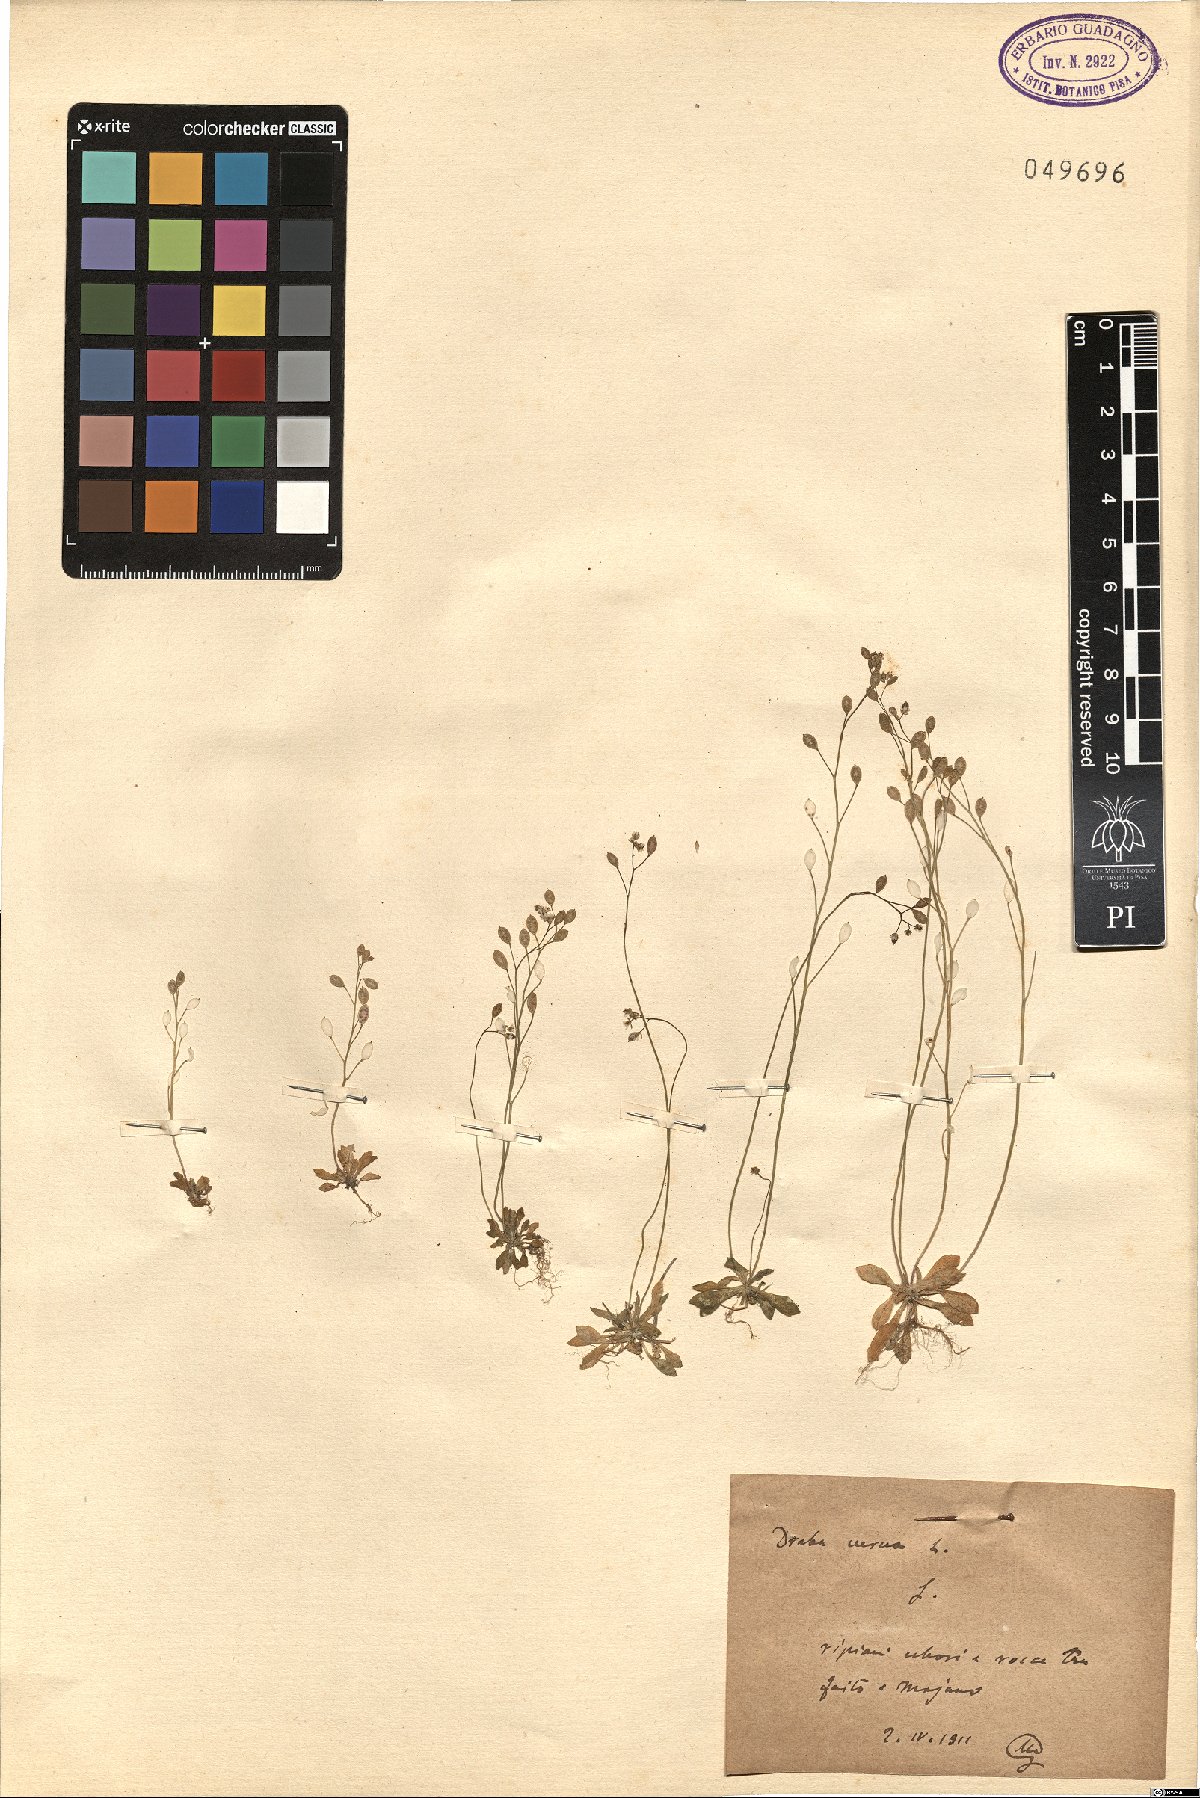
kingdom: Plantae
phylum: Tracheophyta
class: Magnoliopsida
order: Brassicales
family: Brassicaceae
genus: Draba
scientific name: Draba verna
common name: Spring draba
